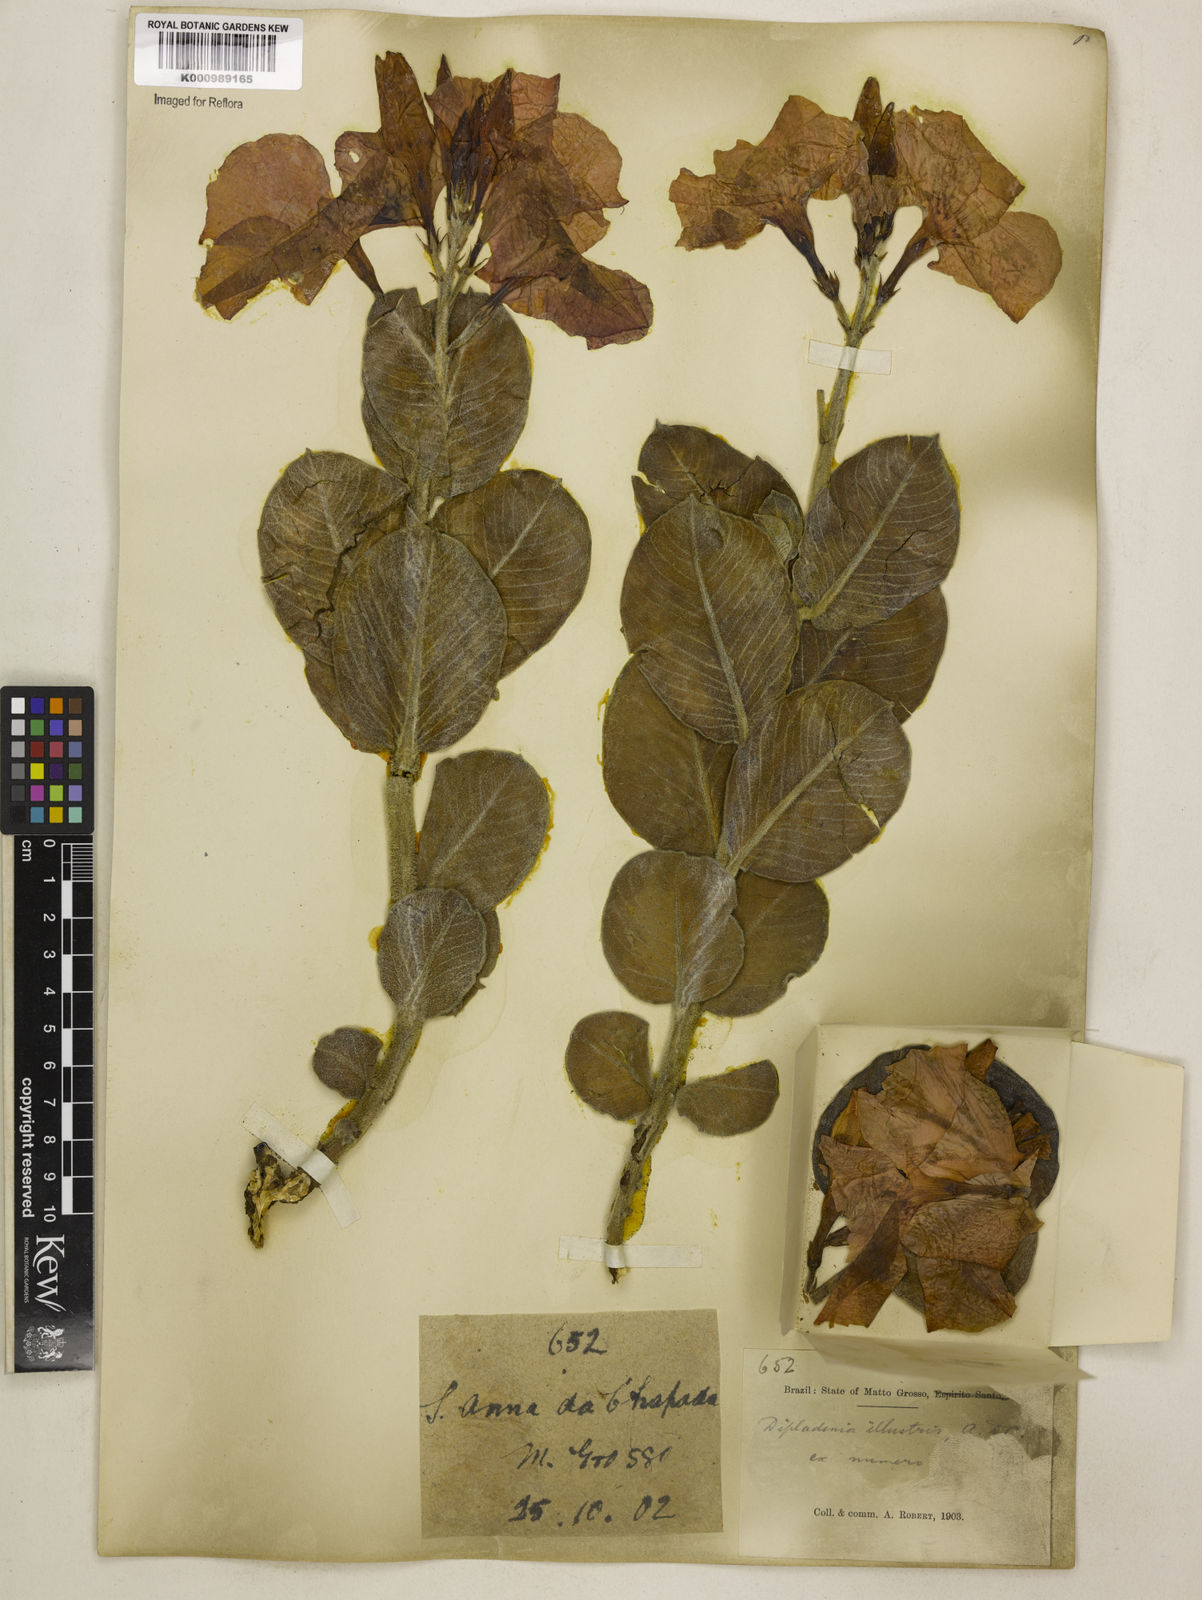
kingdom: Plantae
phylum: Tracheophyta
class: Magnoliopsida
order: Gentianales
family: Apocynaceae
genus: Mandevilla
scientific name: Mandevilla illustris
